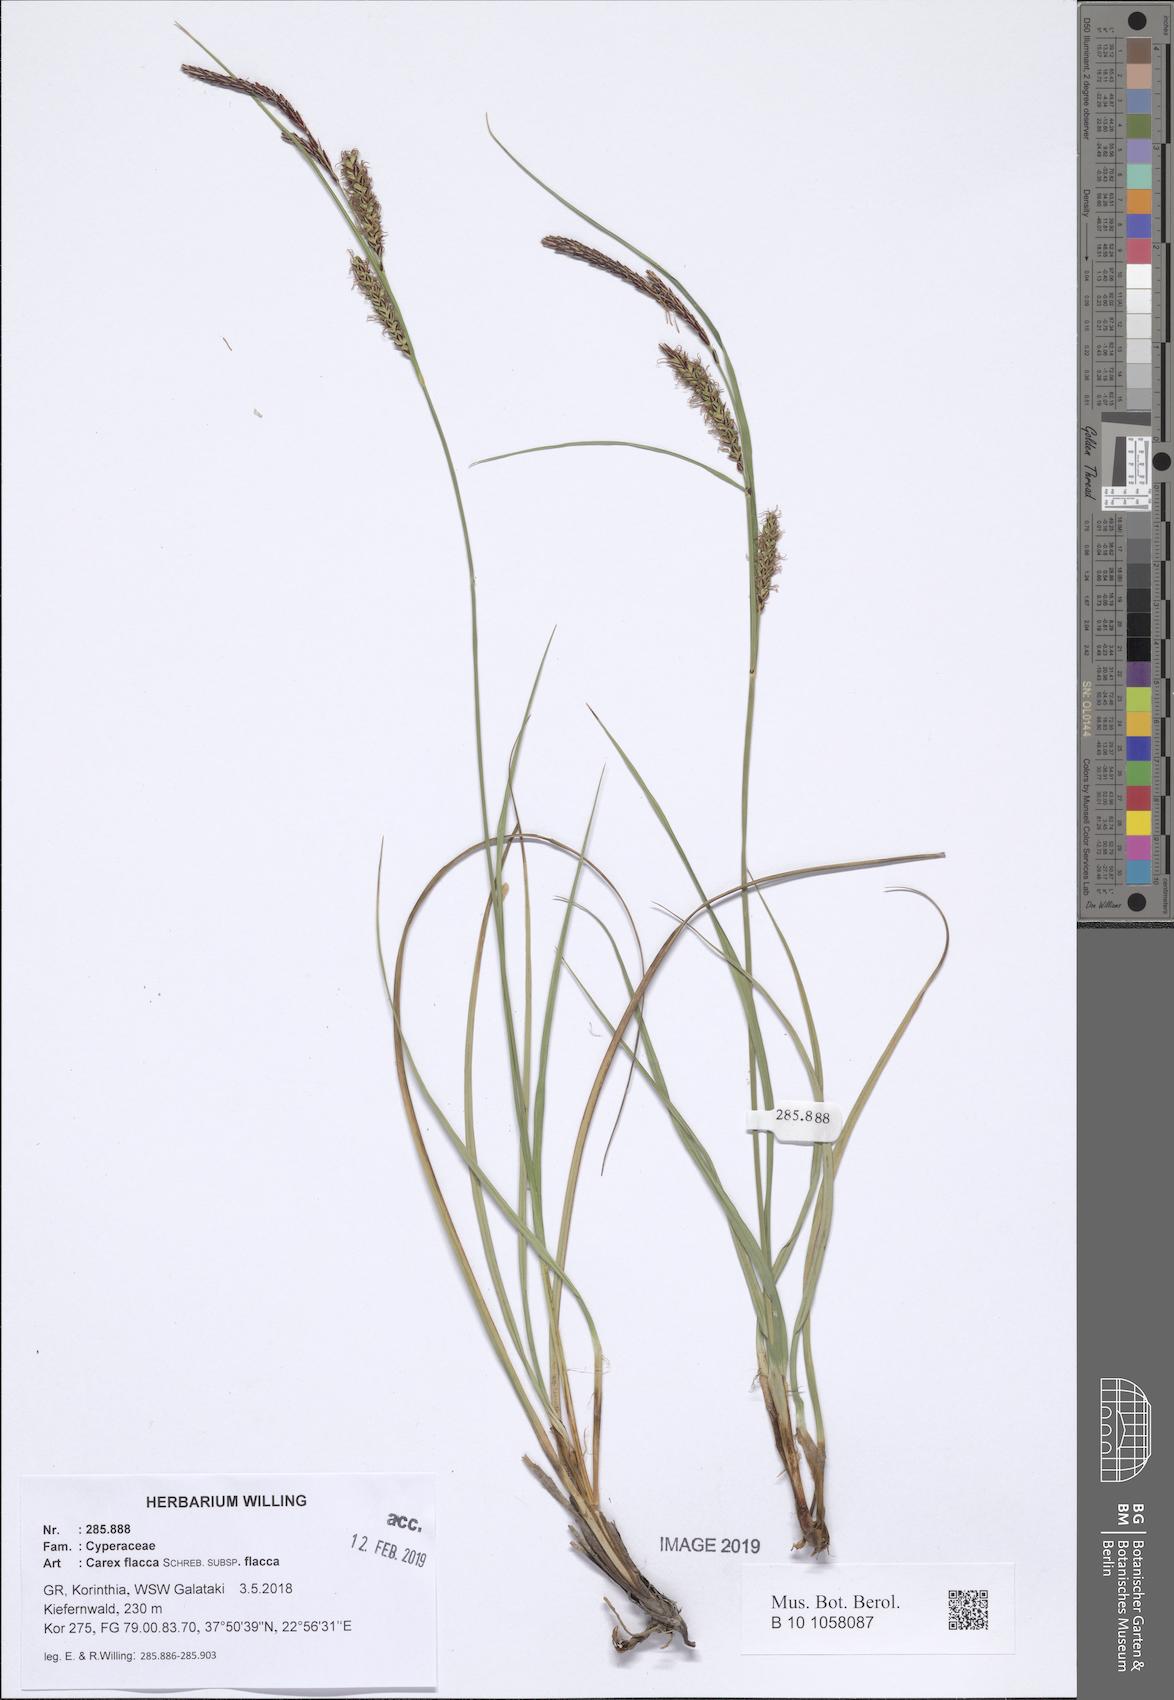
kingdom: Plantae
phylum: Tracheophyta
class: Liliopsida
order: Poales
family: Cyperaceae
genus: Carex
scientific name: Carex flacca
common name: Glaucous sedge
